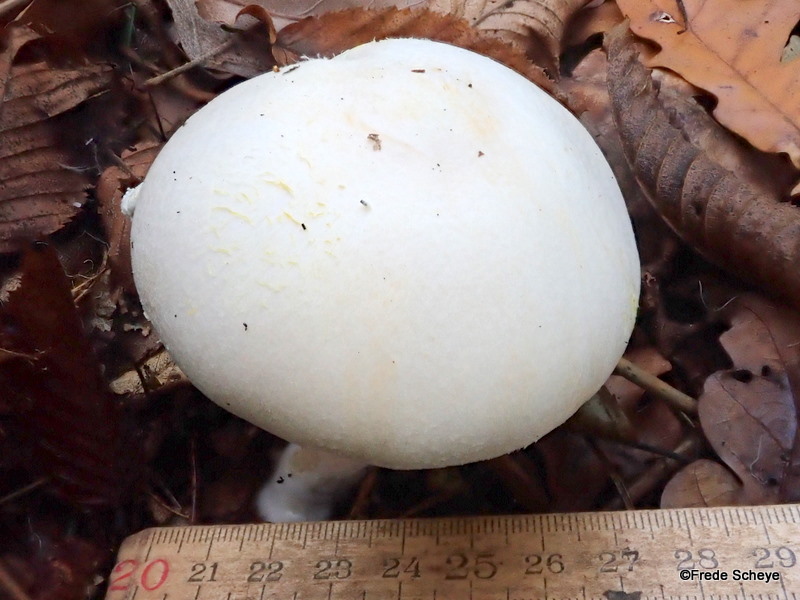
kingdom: Fungi
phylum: Basidiomycota
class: Agaricomycetes
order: Agaricales
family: Agaricaceae
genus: Agaricus
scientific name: Agaricus arvensis
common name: ager-champignon
